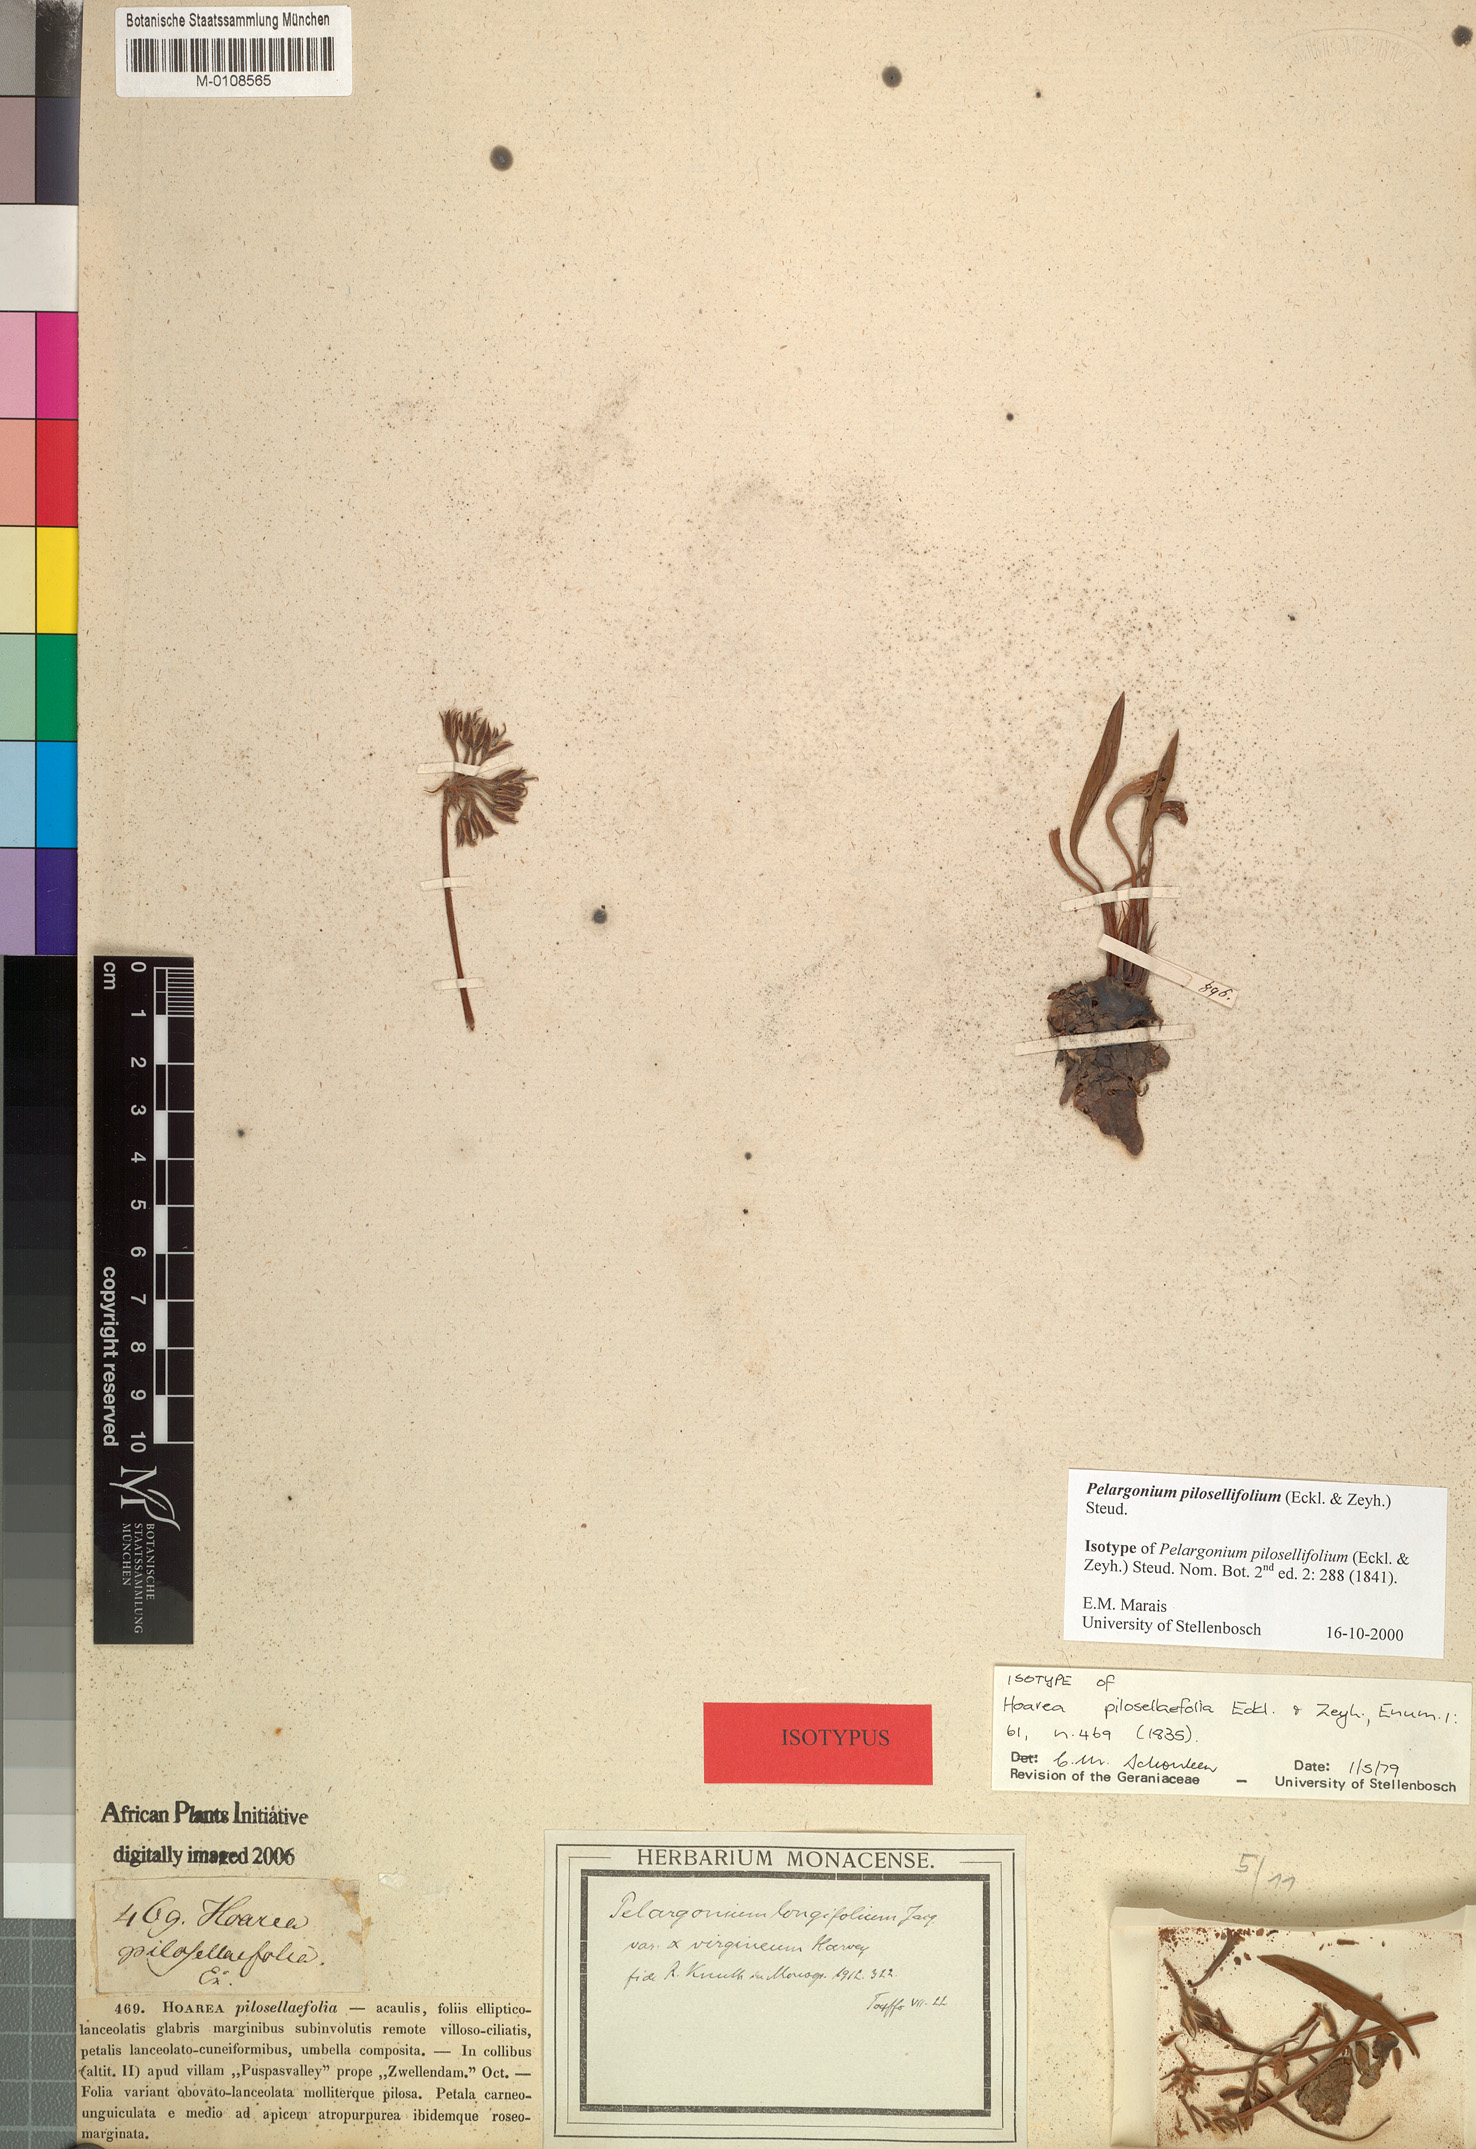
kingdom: Plantae
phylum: Tracheophyta
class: Magnoliopsida
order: Geraniales
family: Geraniaceae
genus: Pelargonium
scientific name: Pelargonium pilosellifolium
